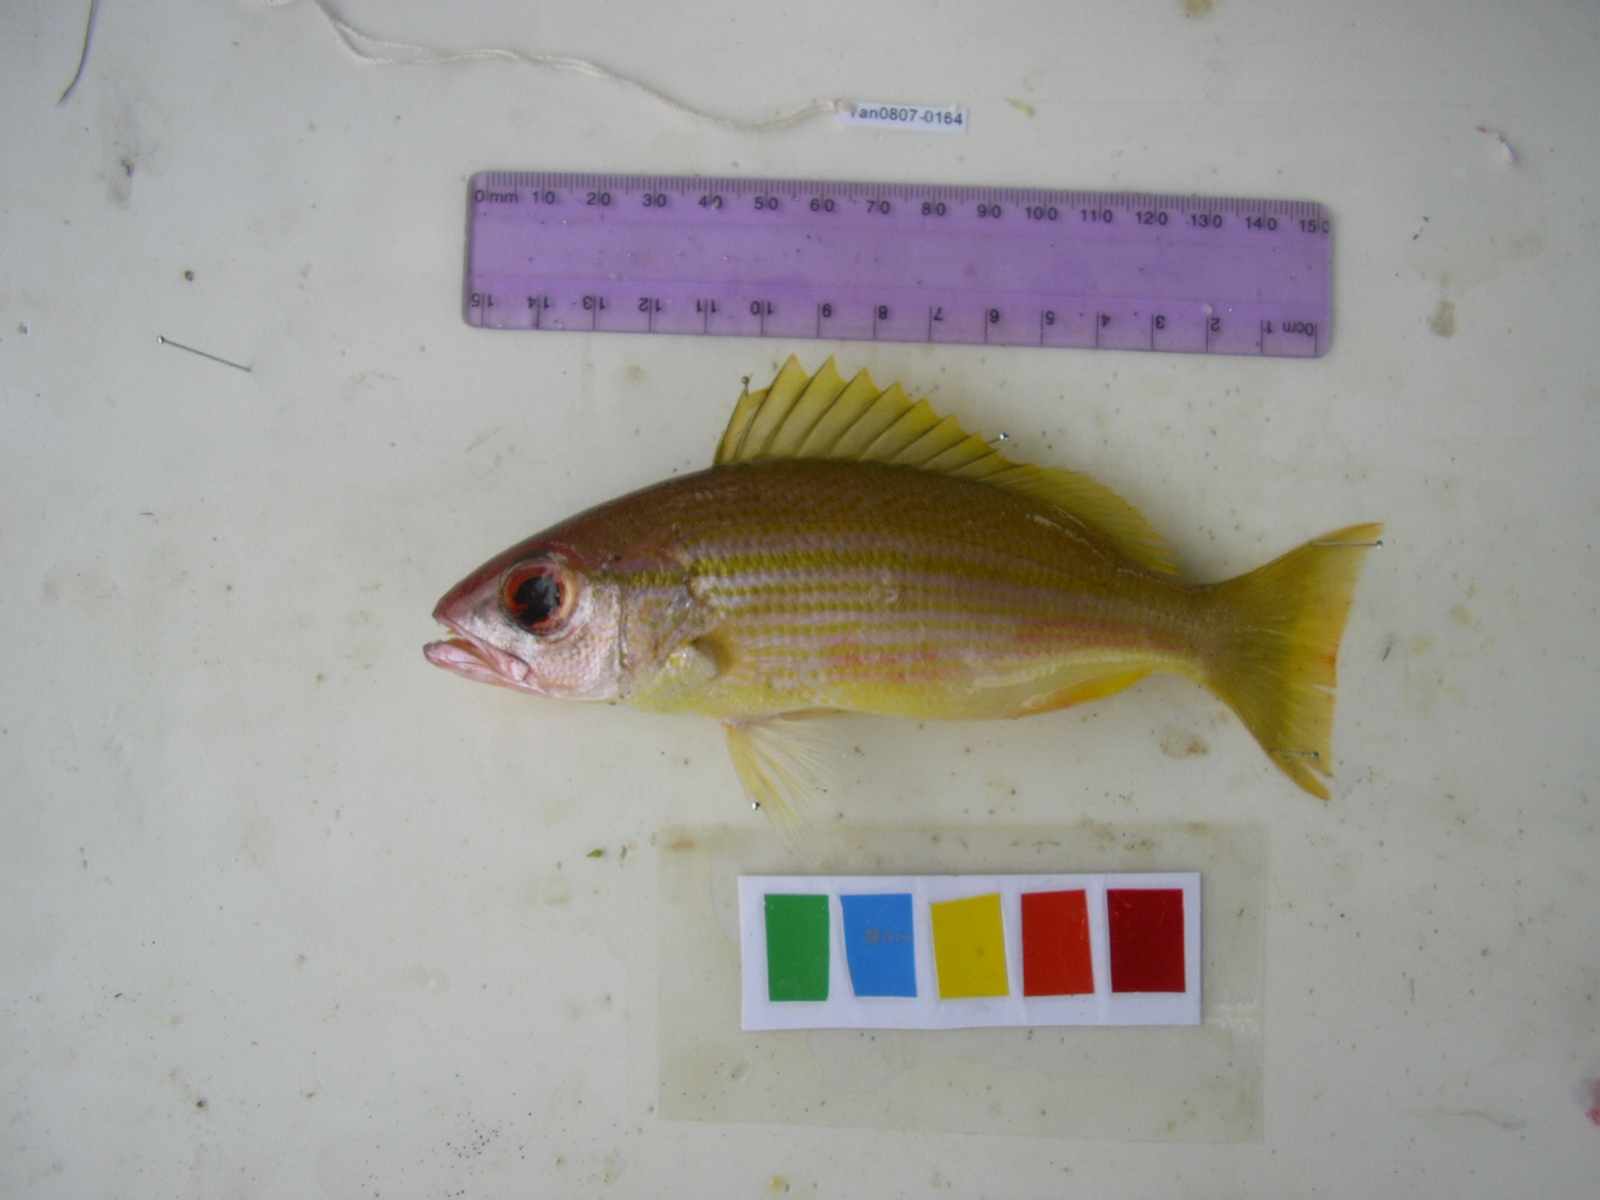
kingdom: Animalia
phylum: Chordata
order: Perciformes
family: Lutjanidae
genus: Lutjanus
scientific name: Lutjanus lutjanus
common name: Bigeye snapper
